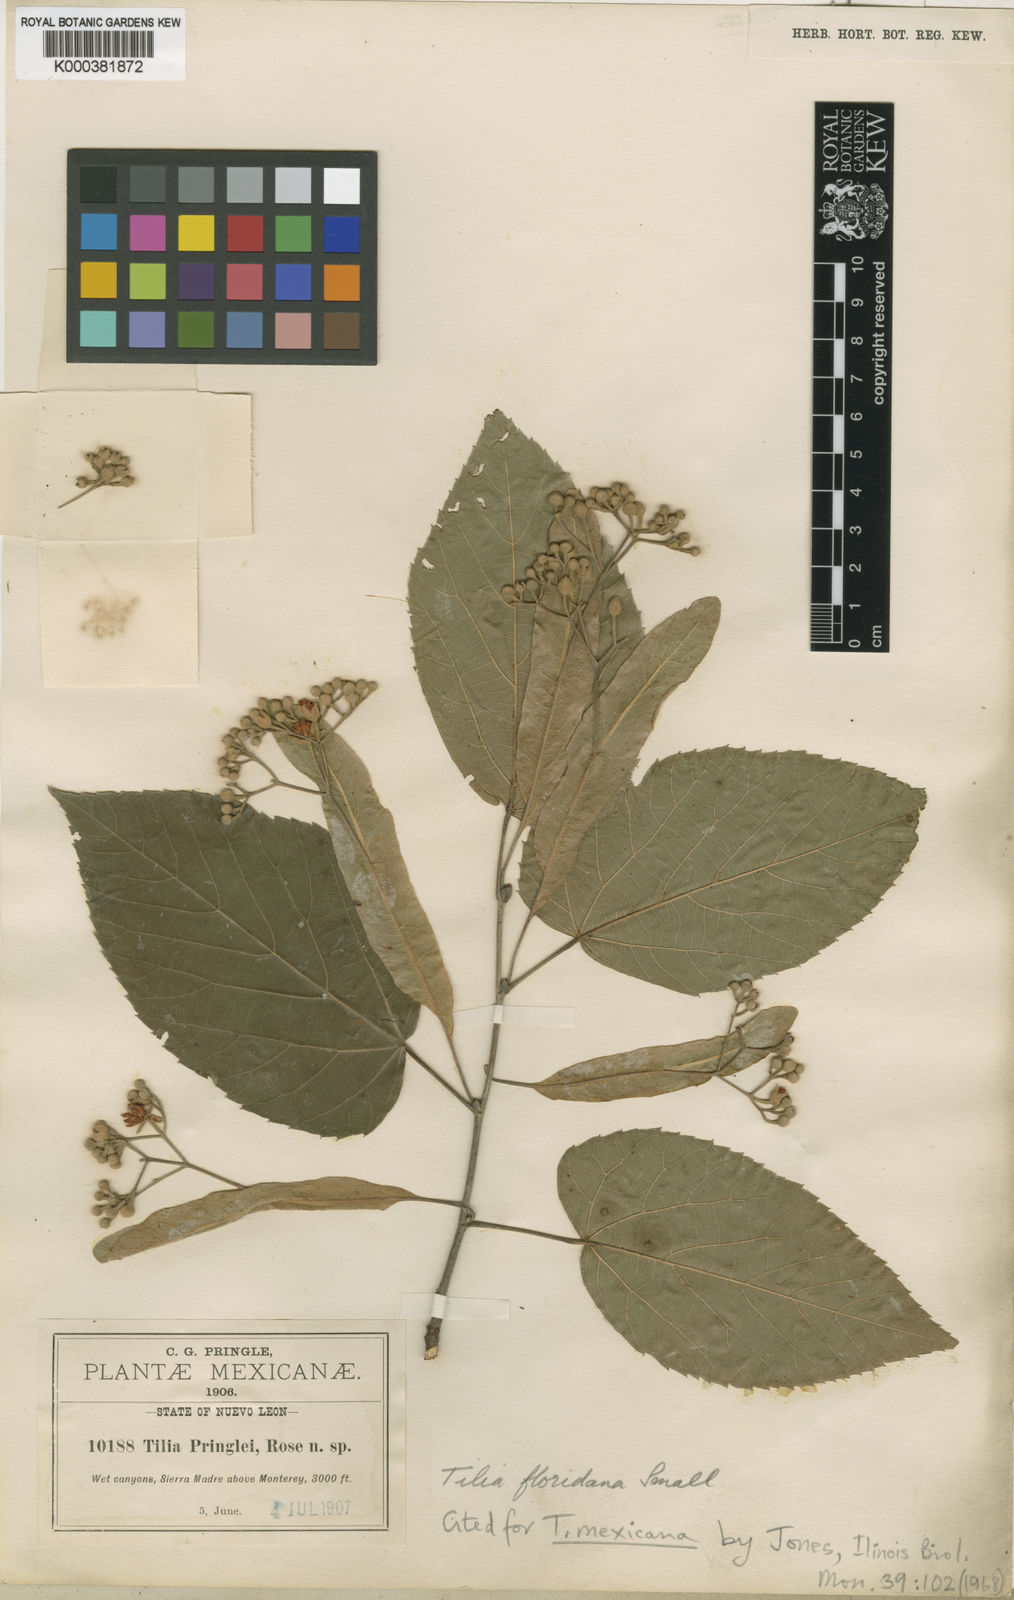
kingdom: Plantae
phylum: Tracheophyta
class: Magnoliopsida
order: Malvales
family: Malvaceae
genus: Tilia
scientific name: Tilia mexicana
